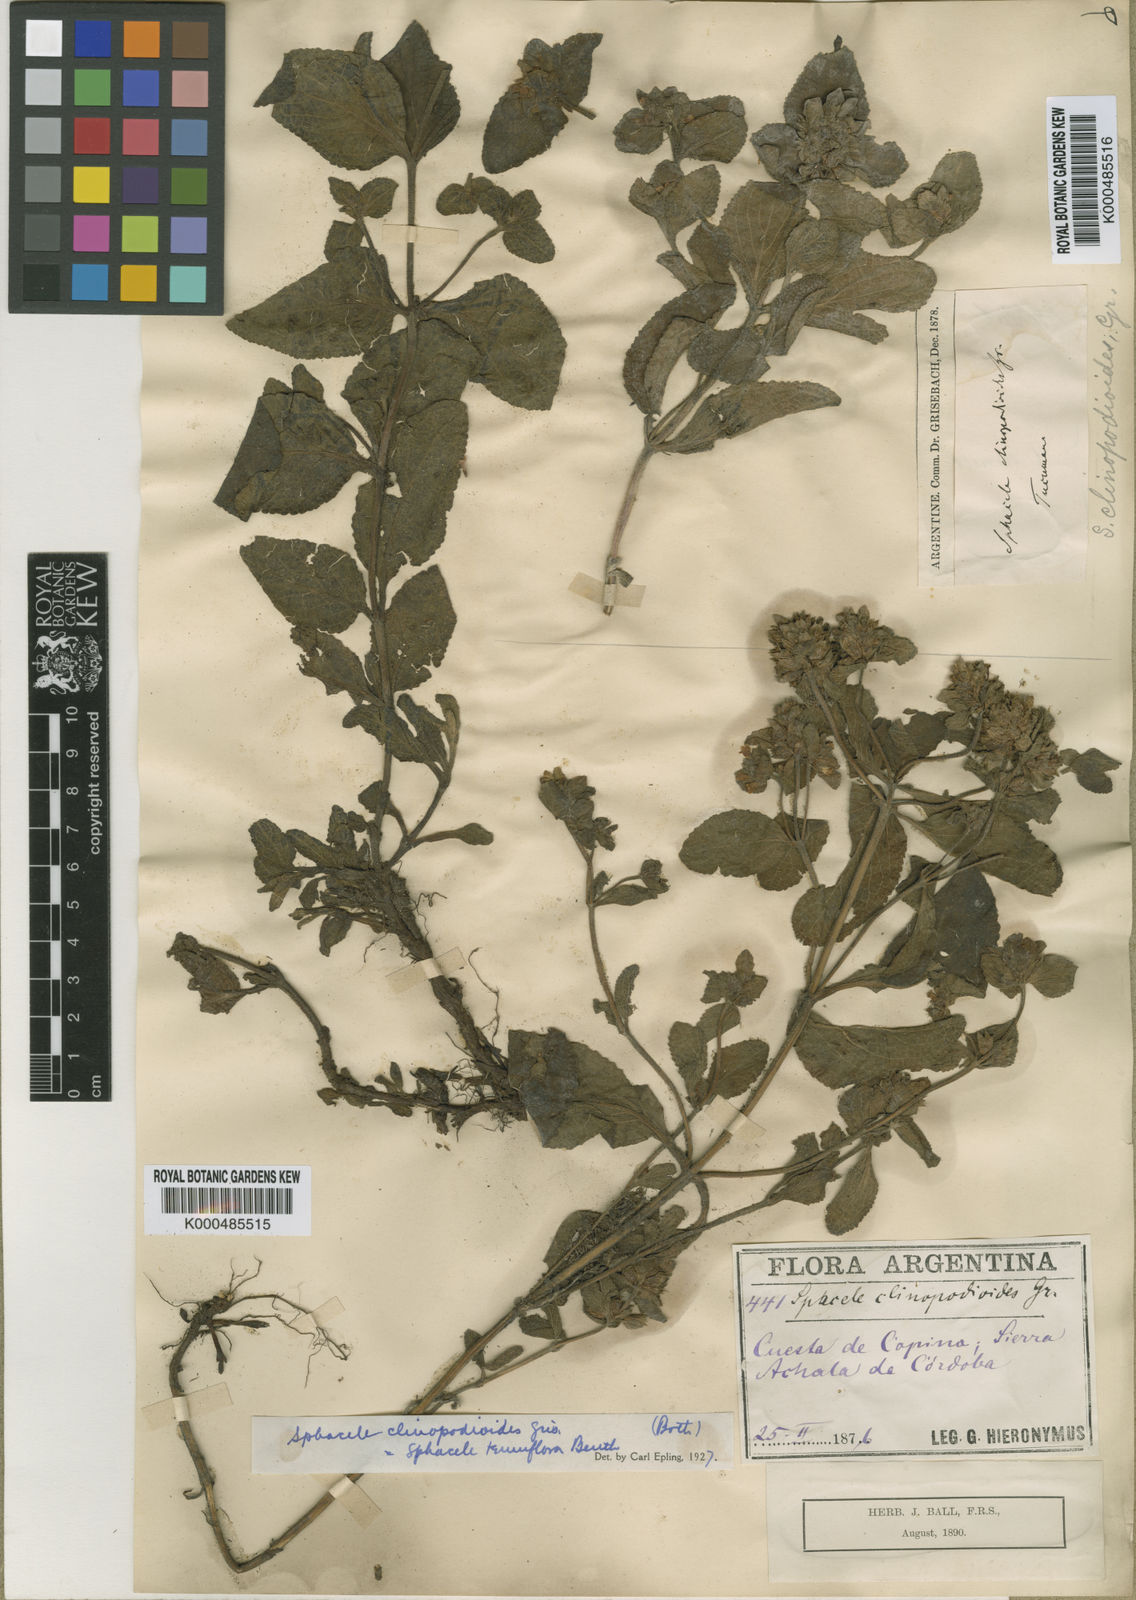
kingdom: Plantae
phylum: Tracheophyta
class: Magnoliopsida
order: Lamiales
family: Lamiaceae
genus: Lepechinia
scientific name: Lepechinia meyenii
